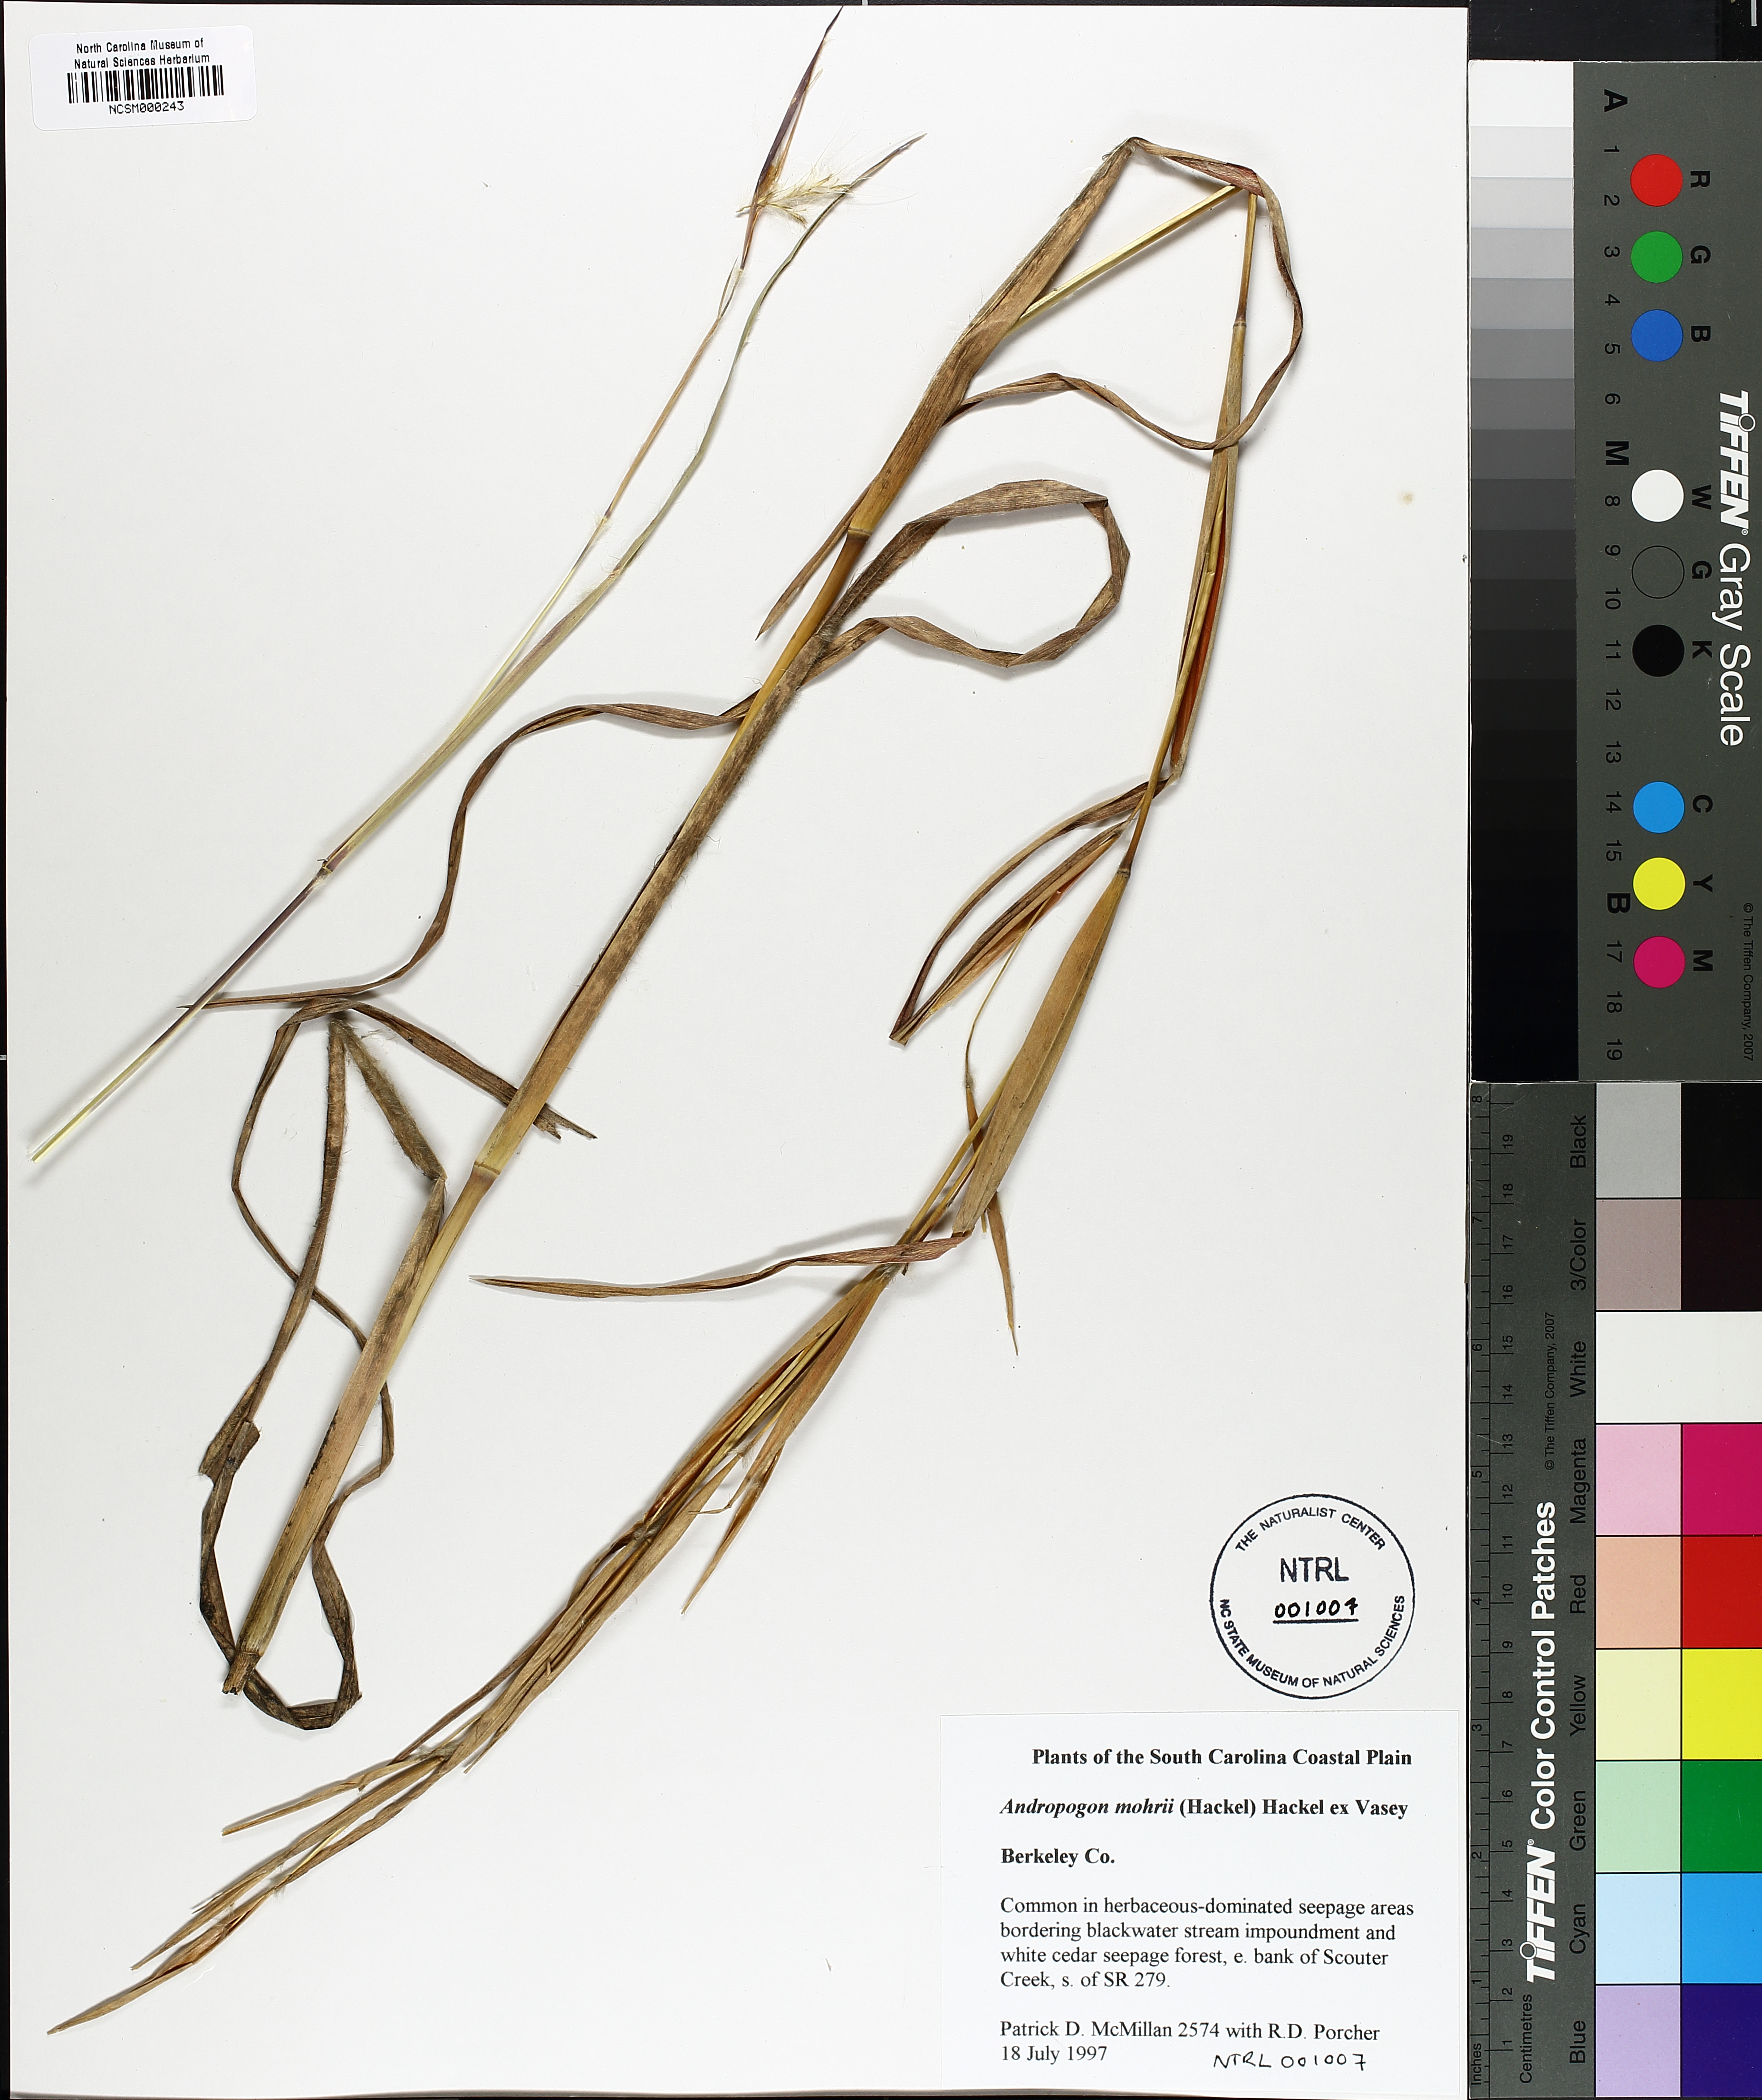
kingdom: Plantae
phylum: Tracheophyta
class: Liliopsida
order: Poales
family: Poaceae
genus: Andropogon
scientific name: Andropogon liebmannii
